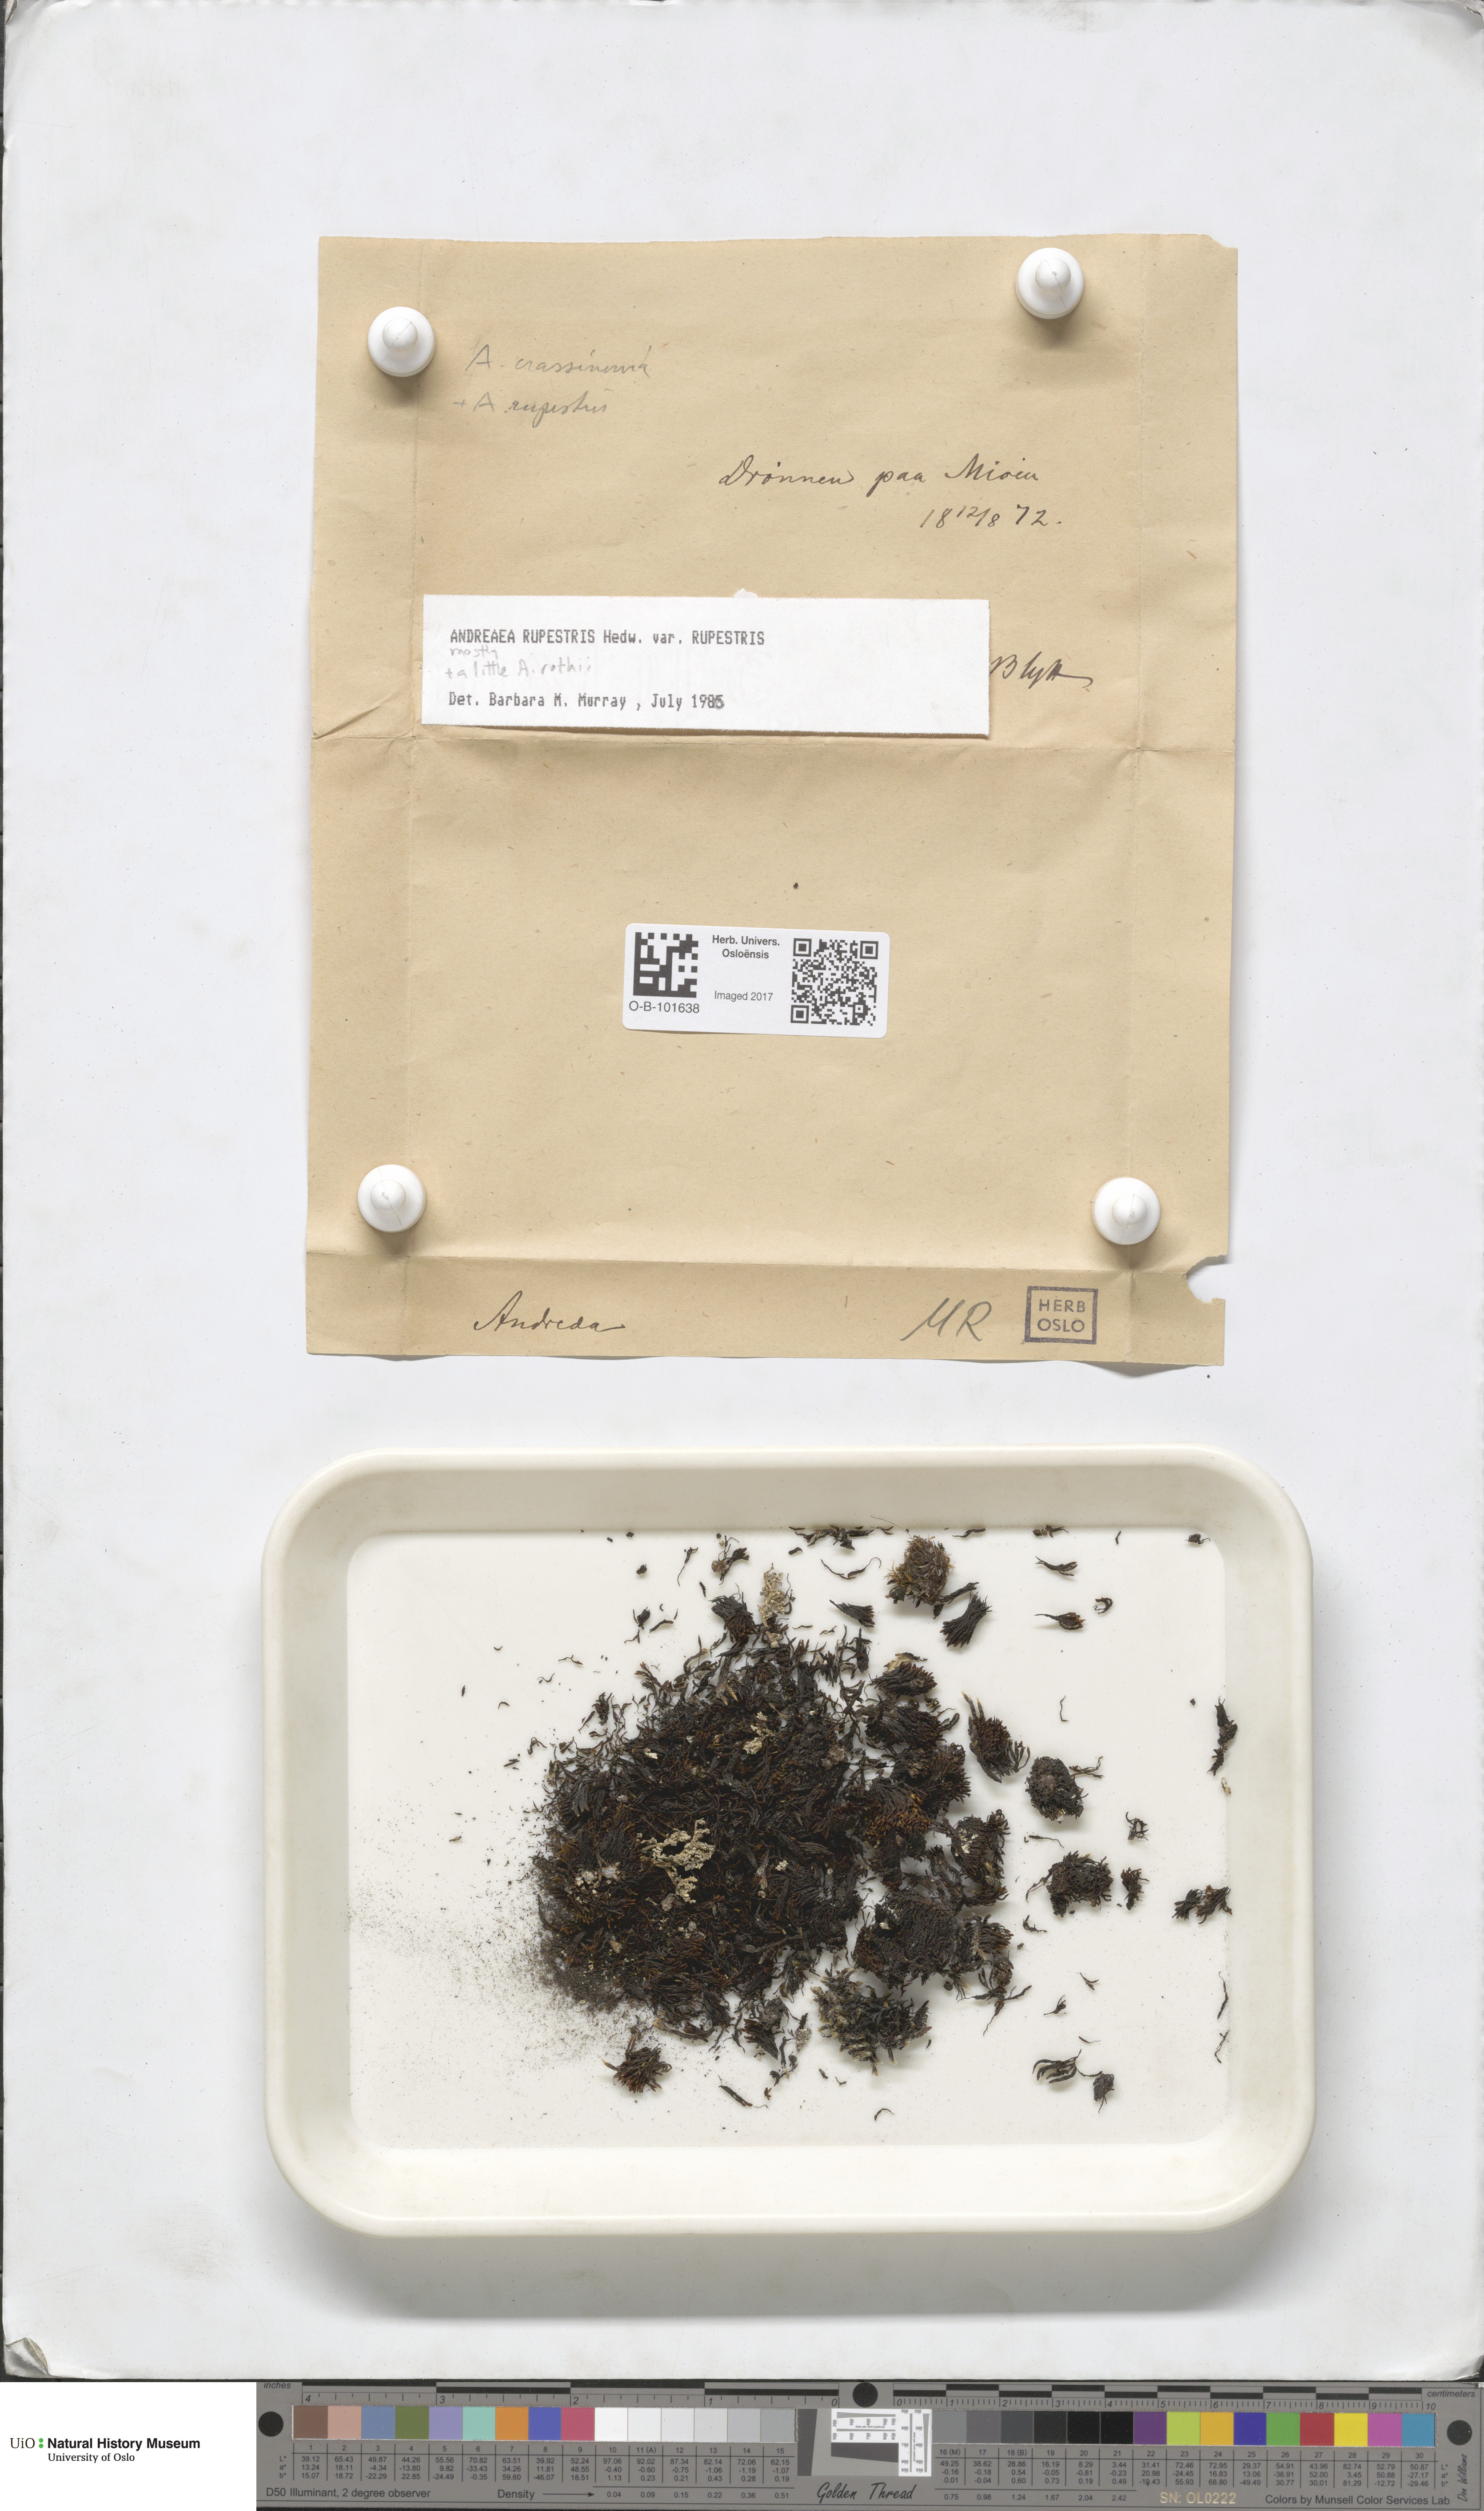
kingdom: Plantae
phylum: Bryophyta
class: Andreaeopsida
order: Andreaeales
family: Andreaeaceae
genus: Andreaea
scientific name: Andreaea rupestris
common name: Black rock moss
